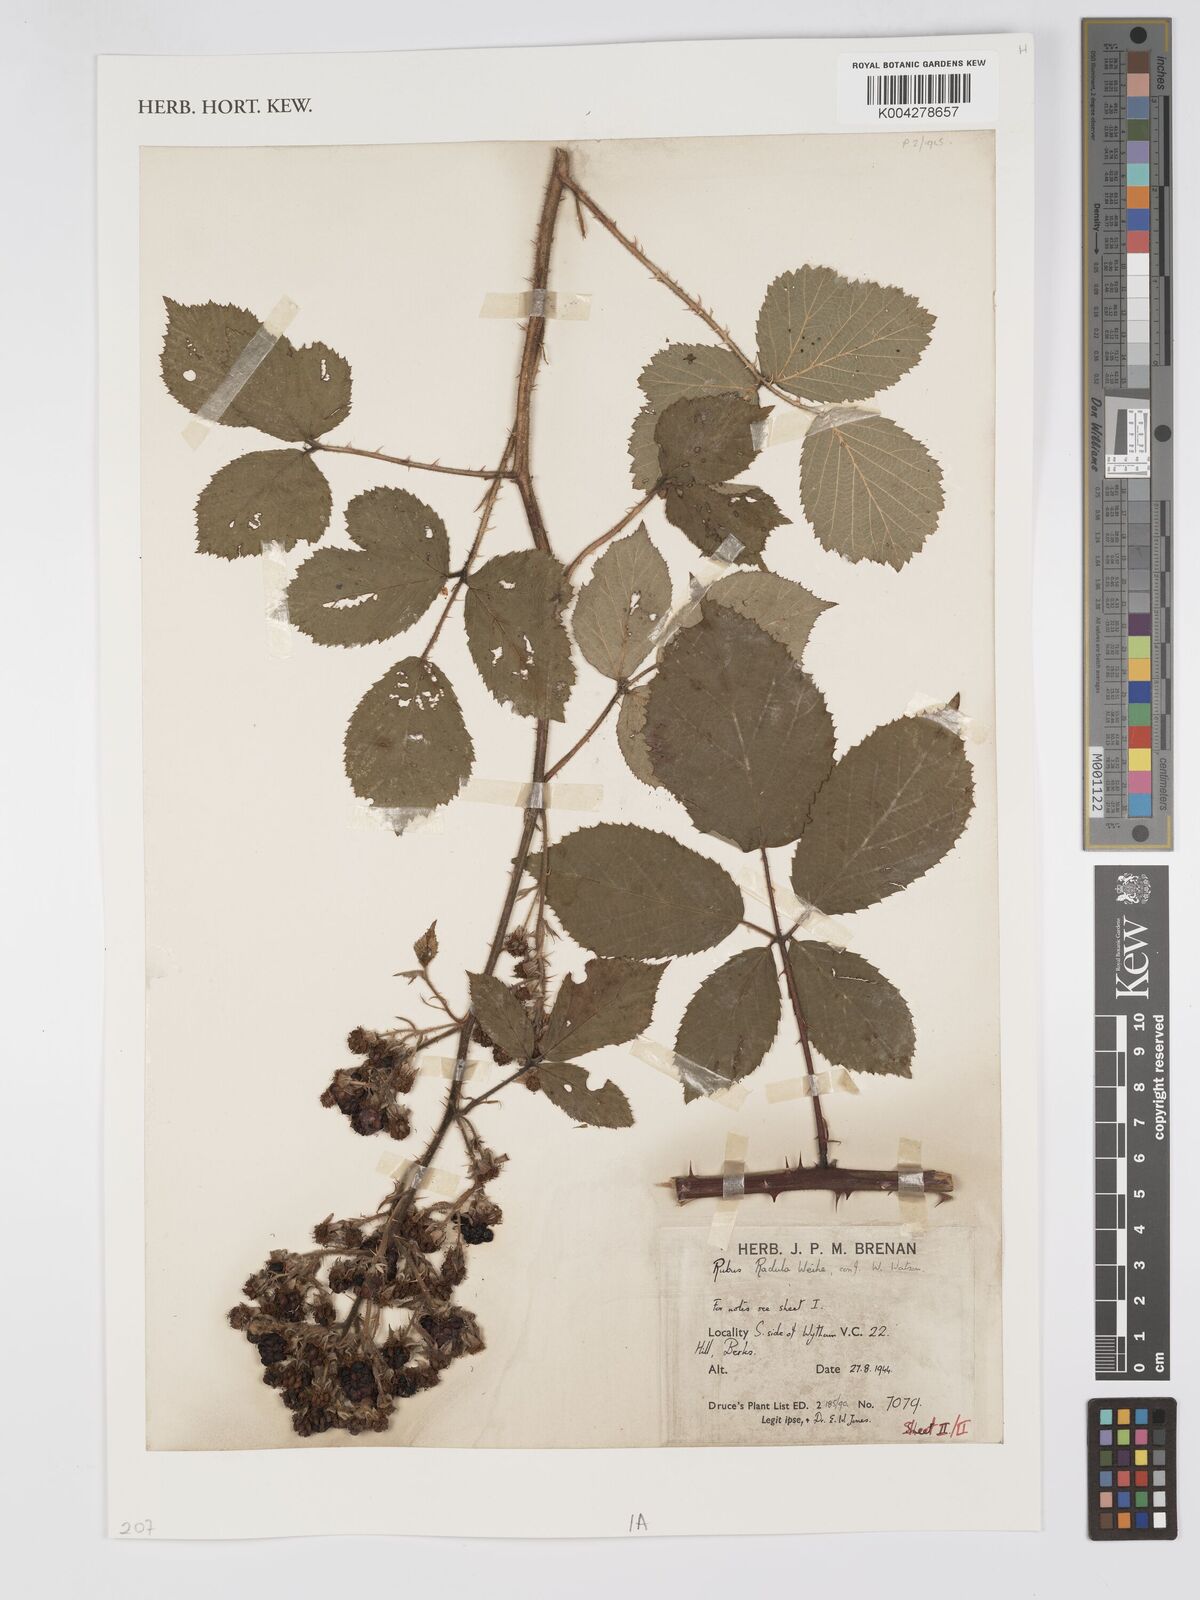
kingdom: Plantae
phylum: Tracheophyta
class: Magnoliopsida
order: Rosales
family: Rosaceae
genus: Rubus
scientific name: Rubus radula
